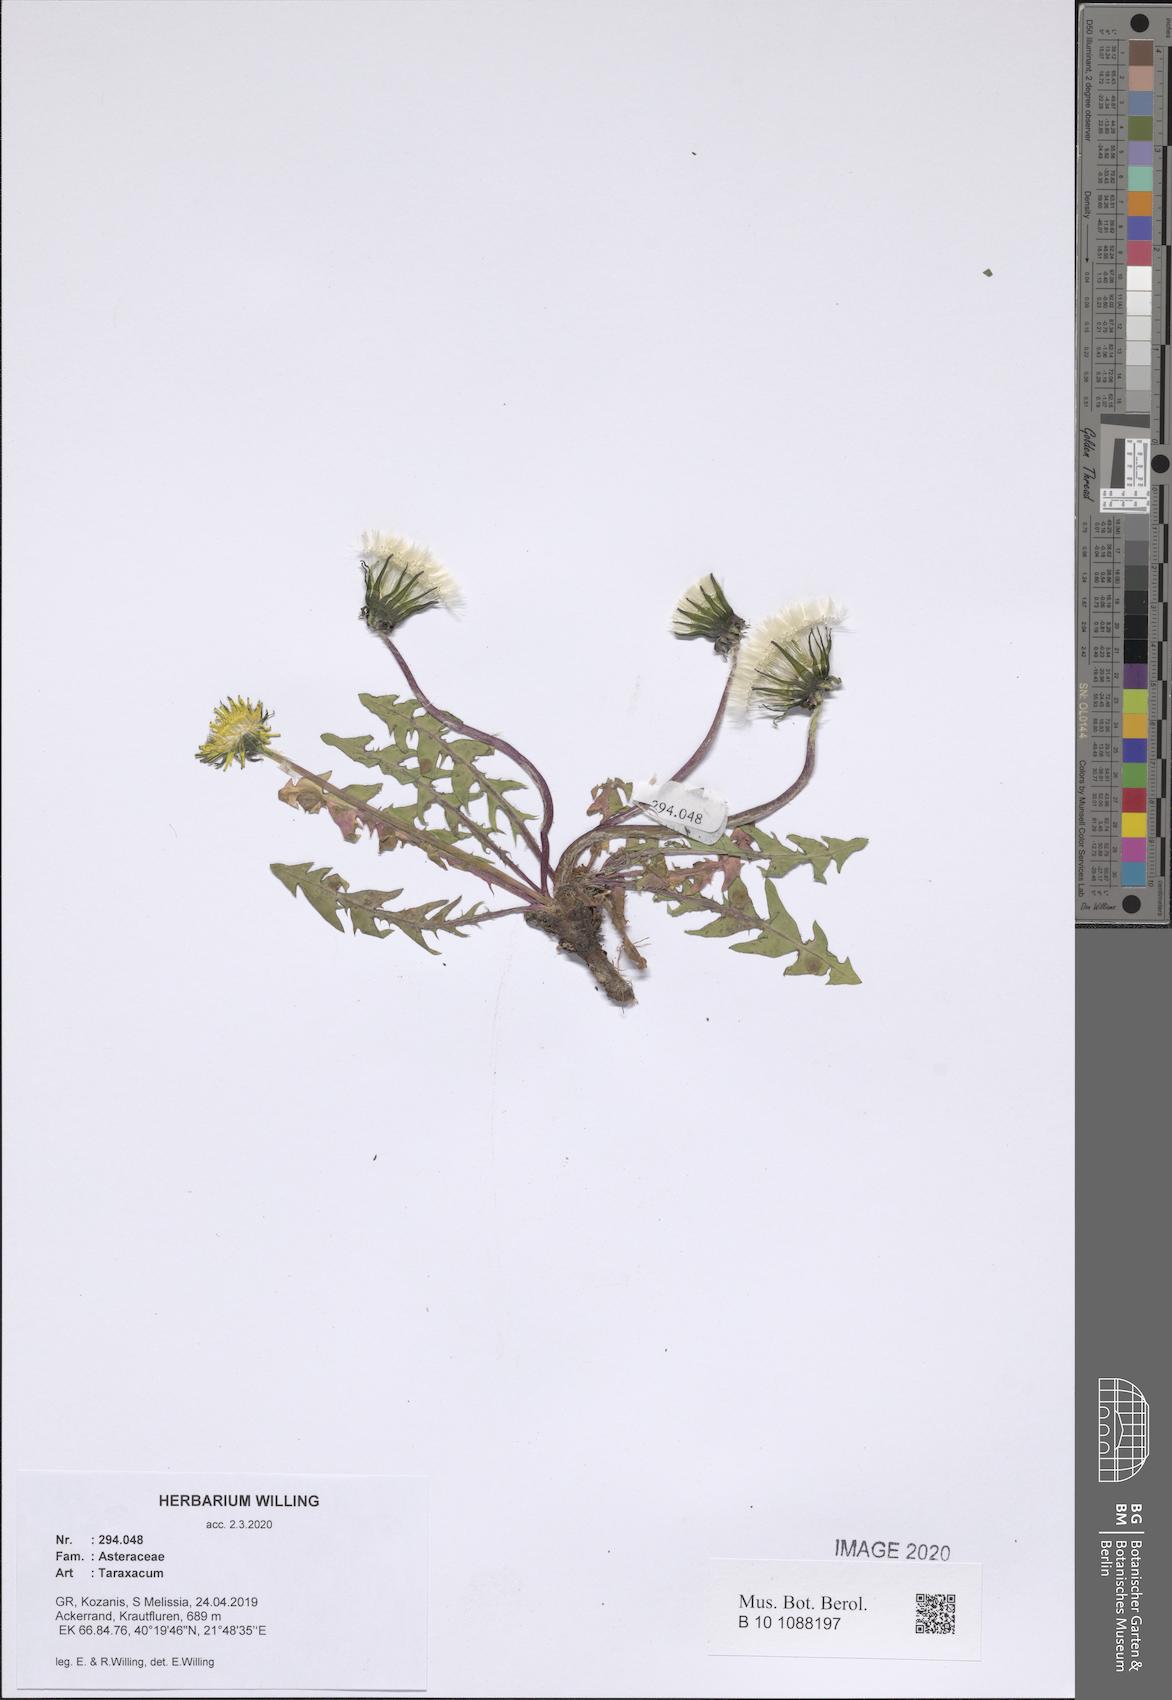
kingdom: Plantae
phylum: Tracheophyta
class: Magnoliopsida
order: Asterales
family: Asteraceae
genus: Taraxacum
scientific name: Taraxacum
